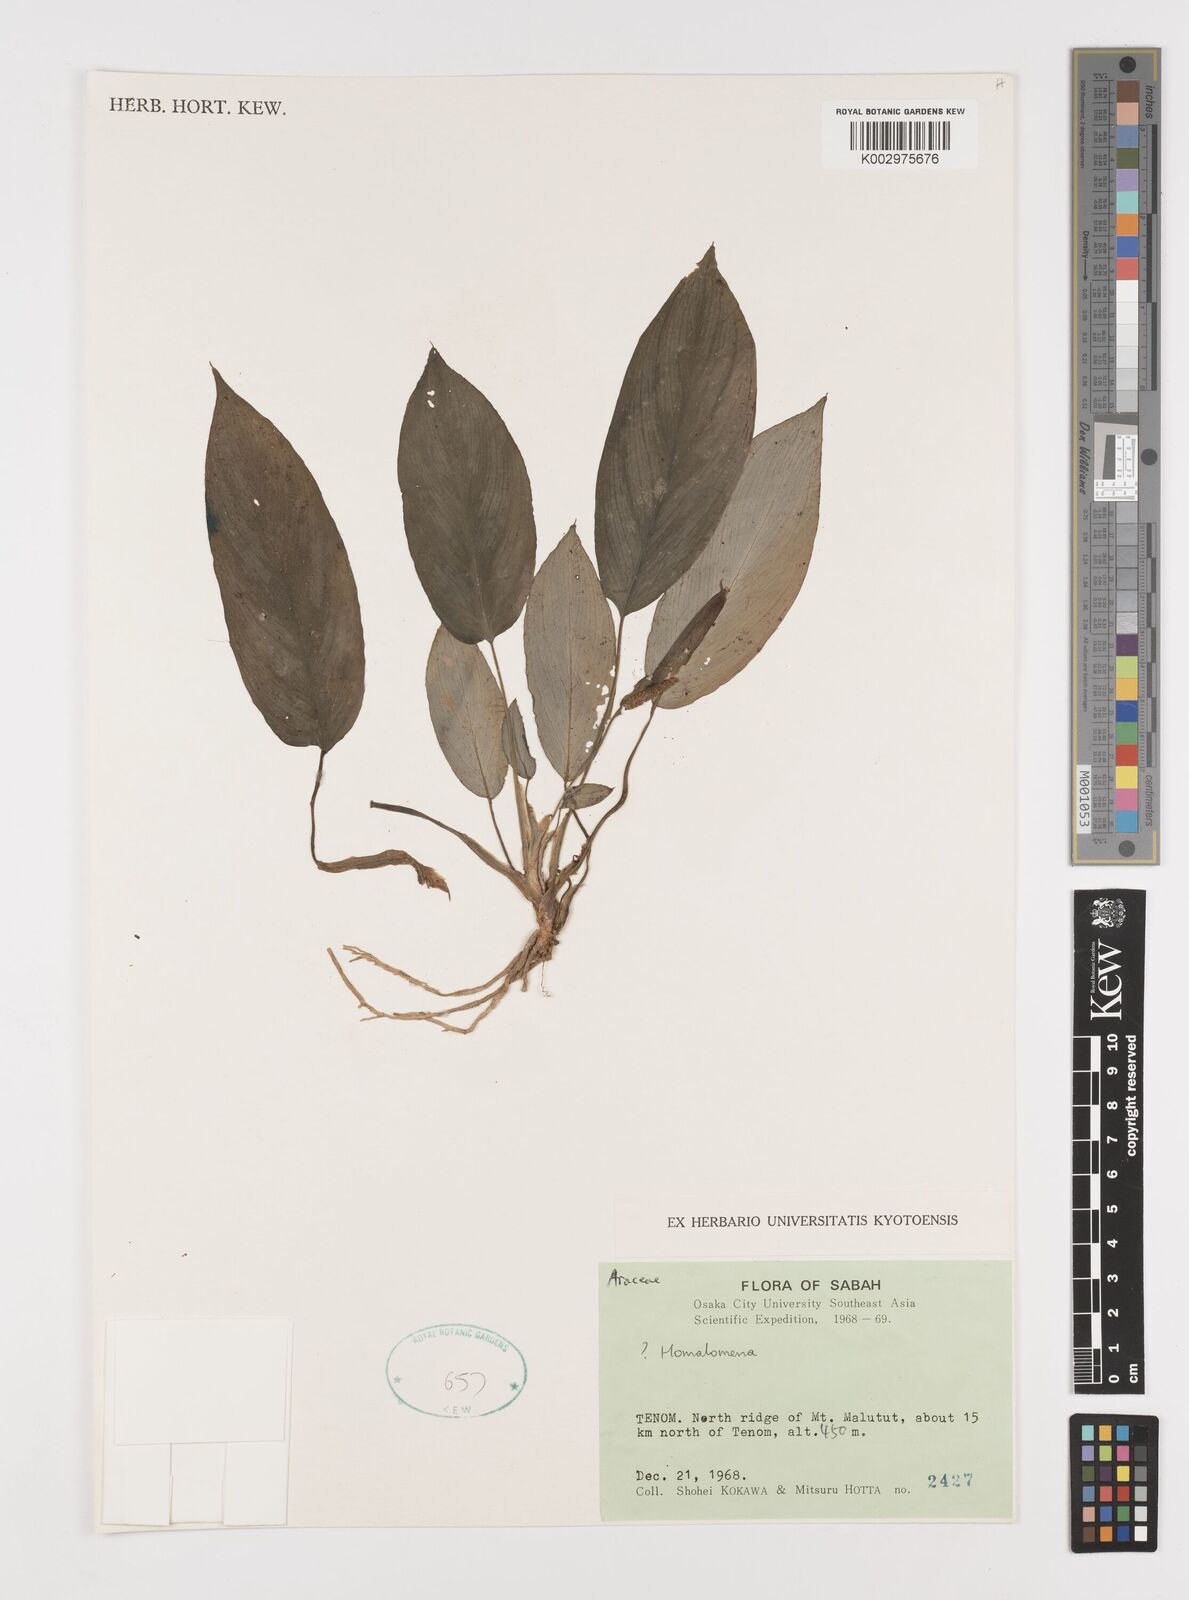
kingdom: Plantae
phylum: Tracheophyta
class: Liliopsida
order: Alismatales
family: Araceae
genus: Homalomena
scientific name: Homalomena
